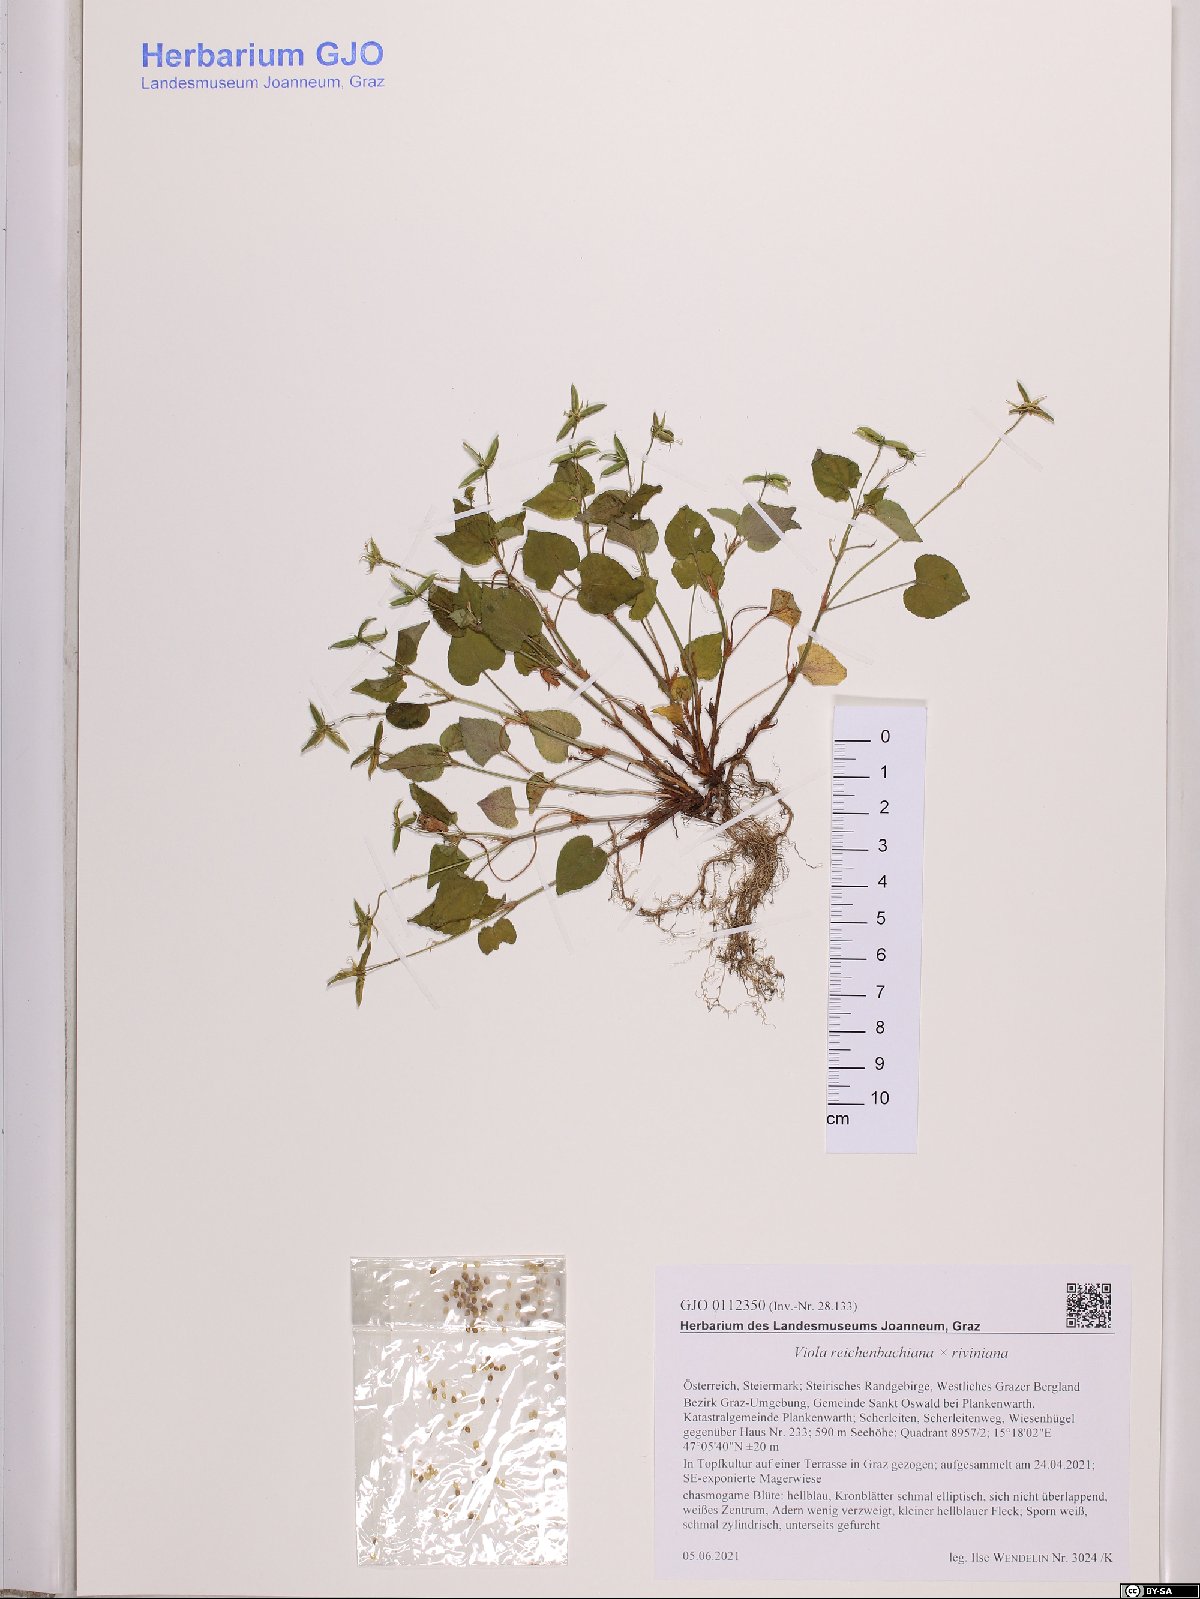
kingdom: Plantae
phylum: Tracheophyta
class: Magnoliopsida
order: Malpighiales
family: Violaceae
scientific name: Violaceae
